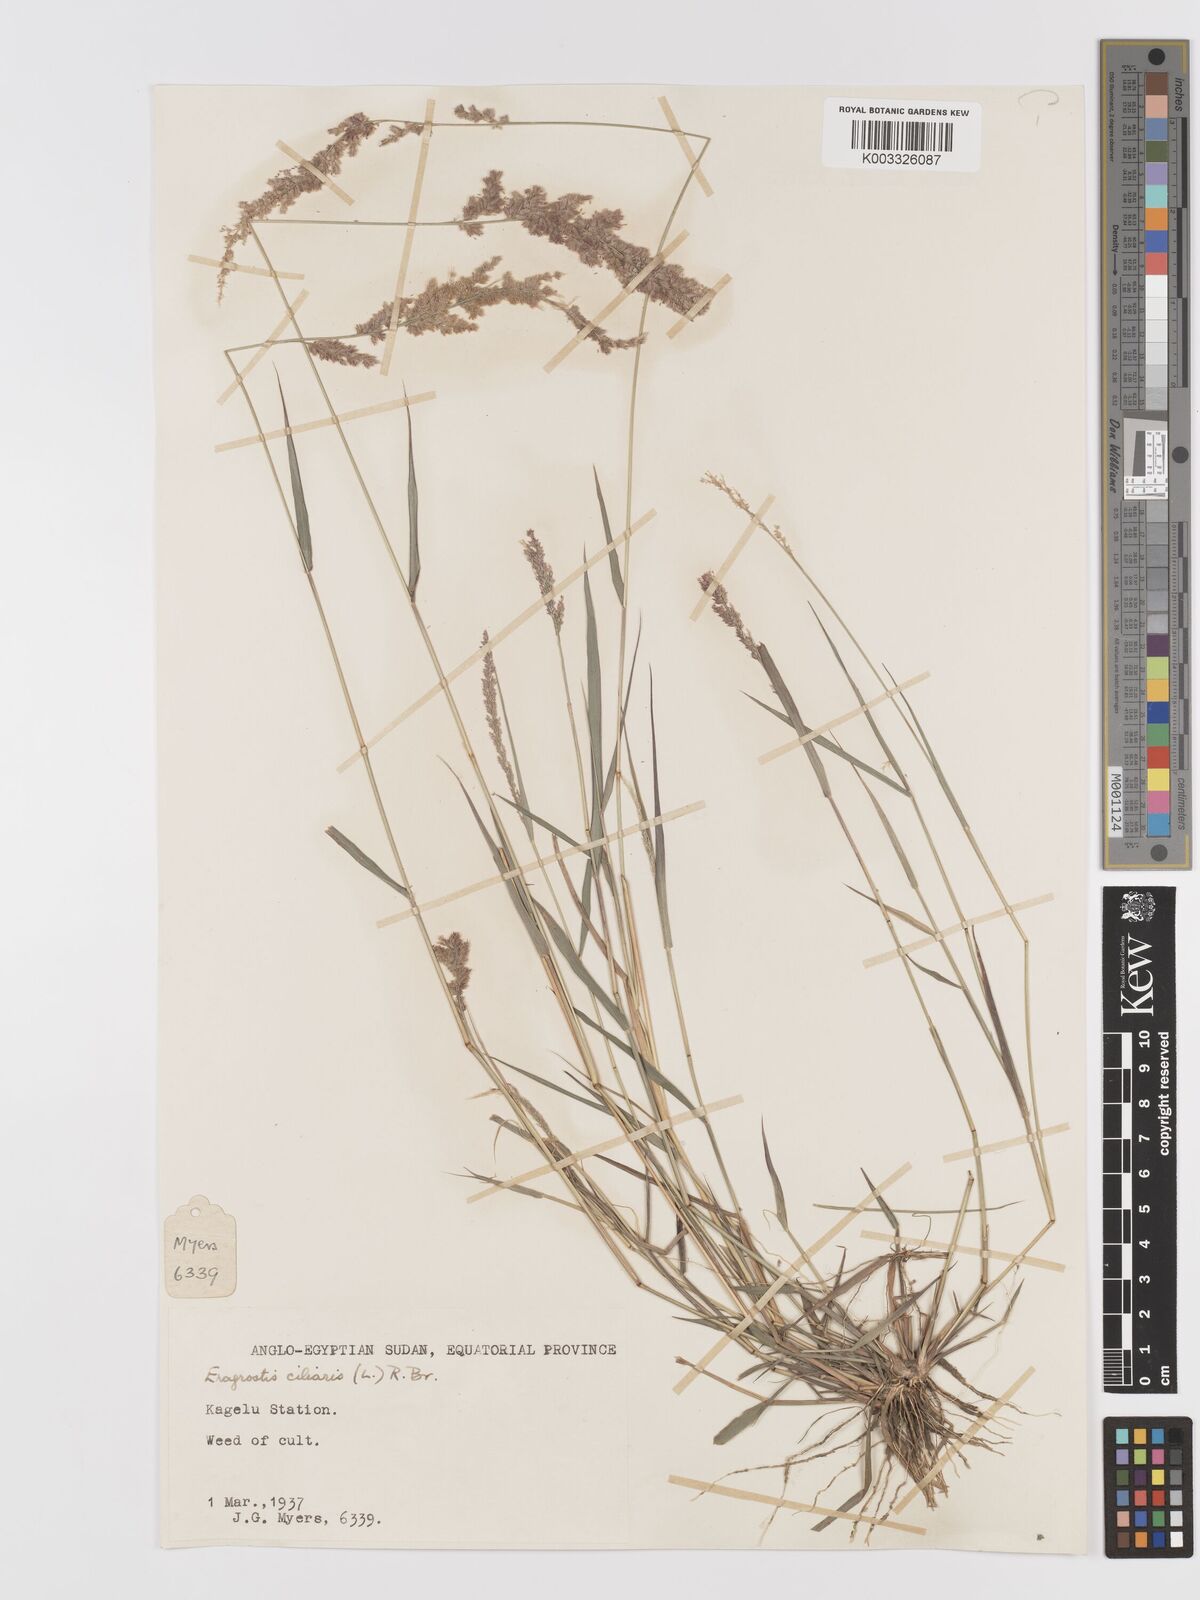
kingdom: Plantae
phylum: Tracheophyta
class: Liliopsida
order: Poales
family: Poaceae
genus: Eragrostis
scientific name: Eragrostis ciliaris
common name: Gophertail lovegrass
